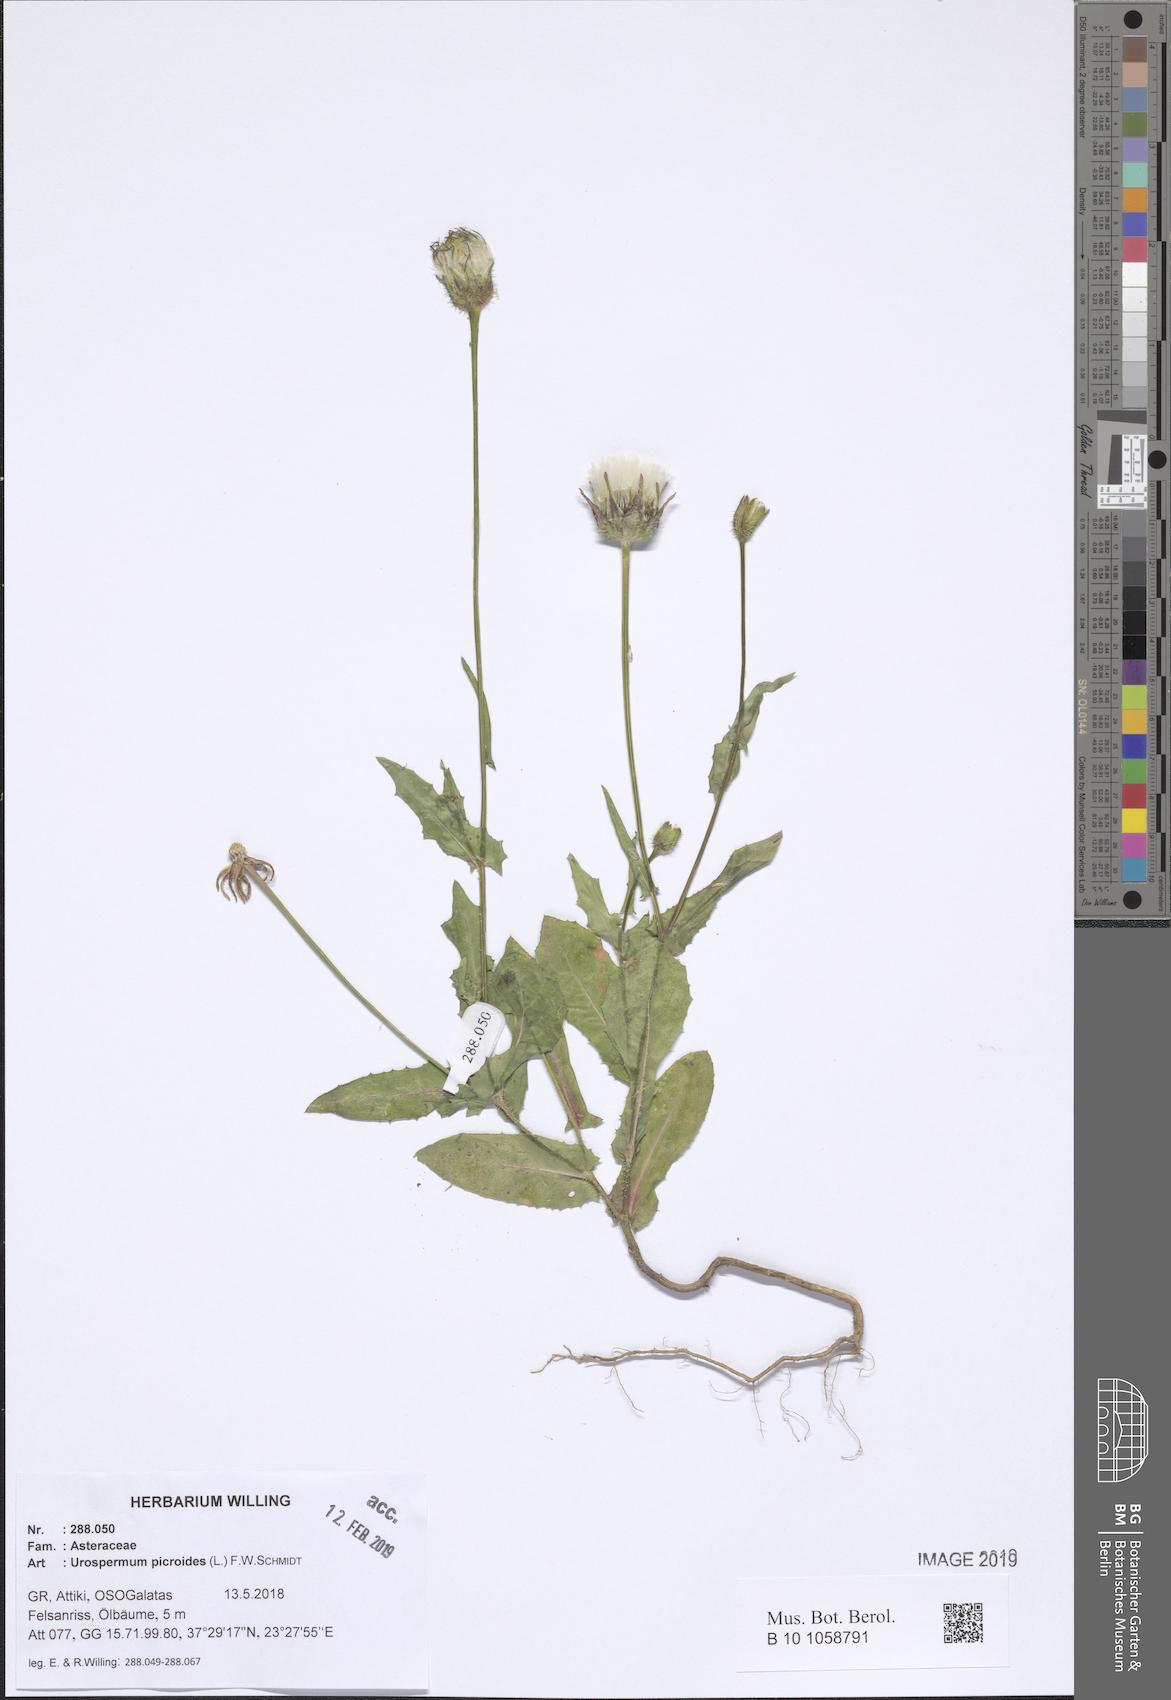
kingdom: Plantae
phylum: Tracheophyta
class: Magnoliopsida
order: Asterales
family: Asteraceae
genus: Urospermum
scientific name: Urospermum picroides
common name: False hawkbit
